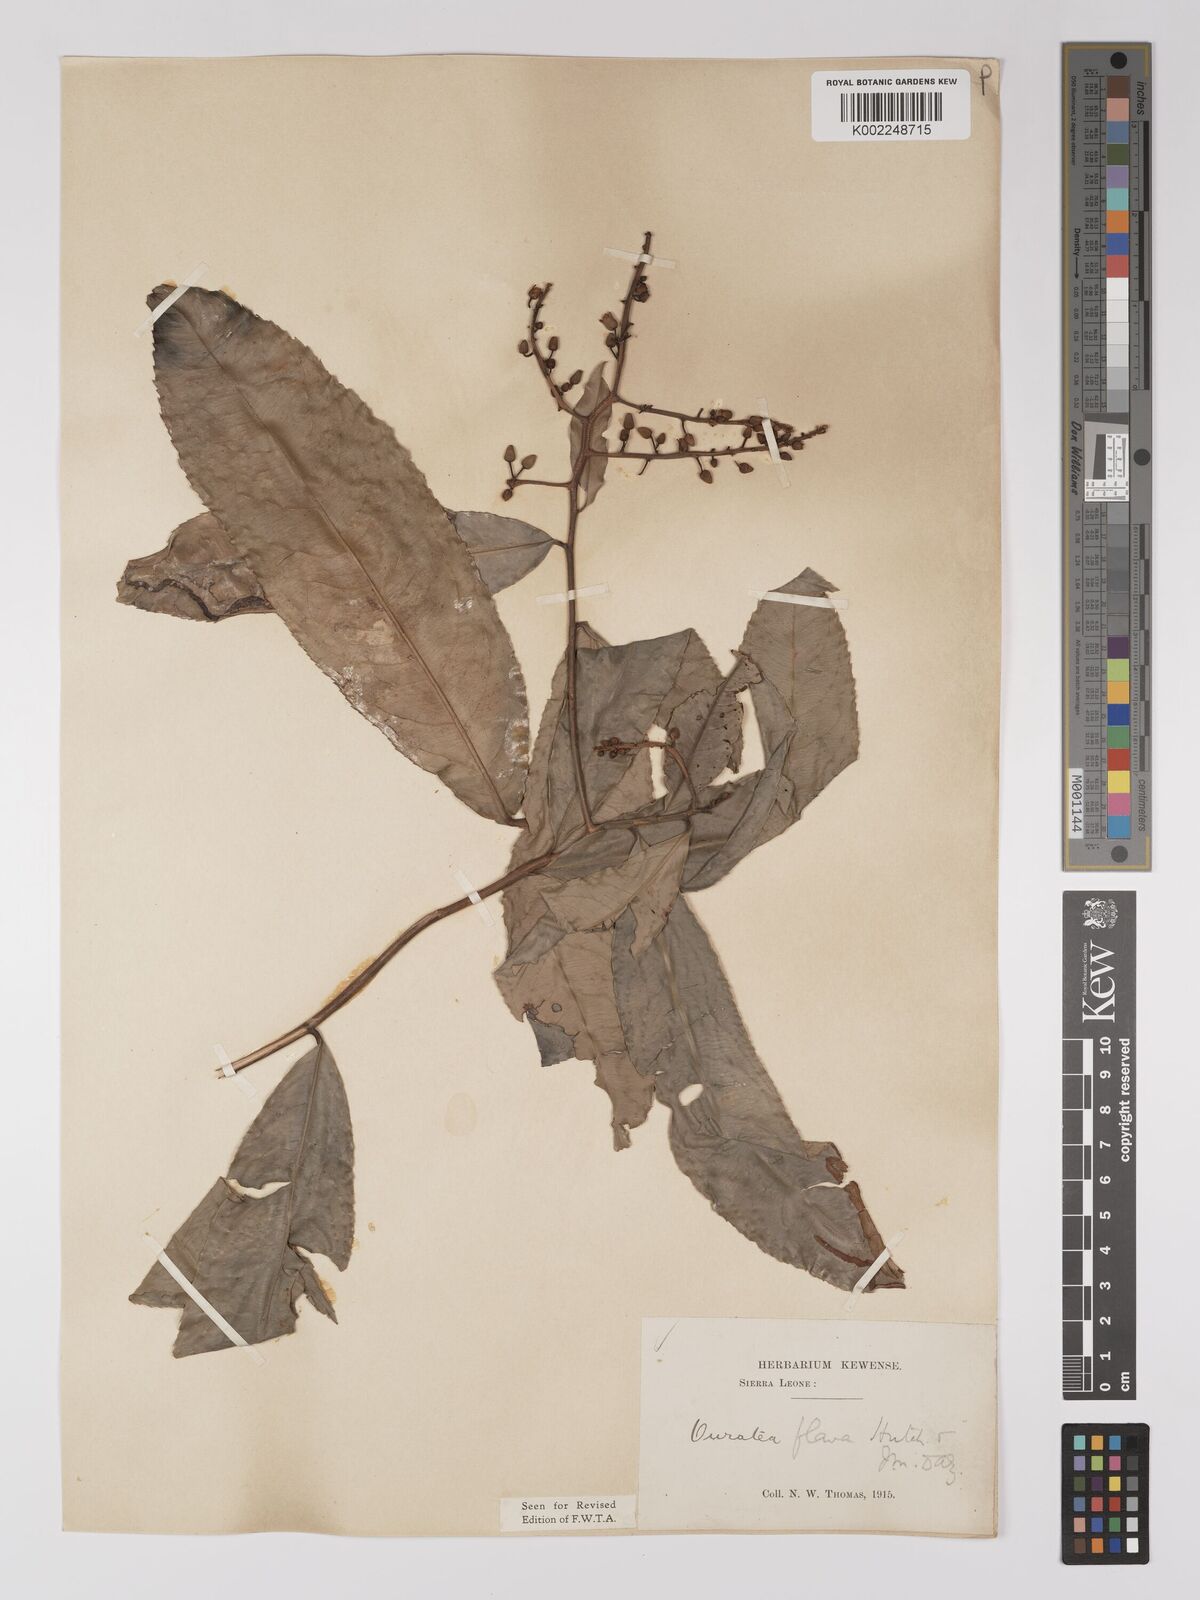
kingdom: Plantae
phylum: Tracheophyta
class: Magnoliopsida
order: Malpighiales
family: Ochnaceae
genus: Campylospermum
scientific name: Campylospermum flavum
